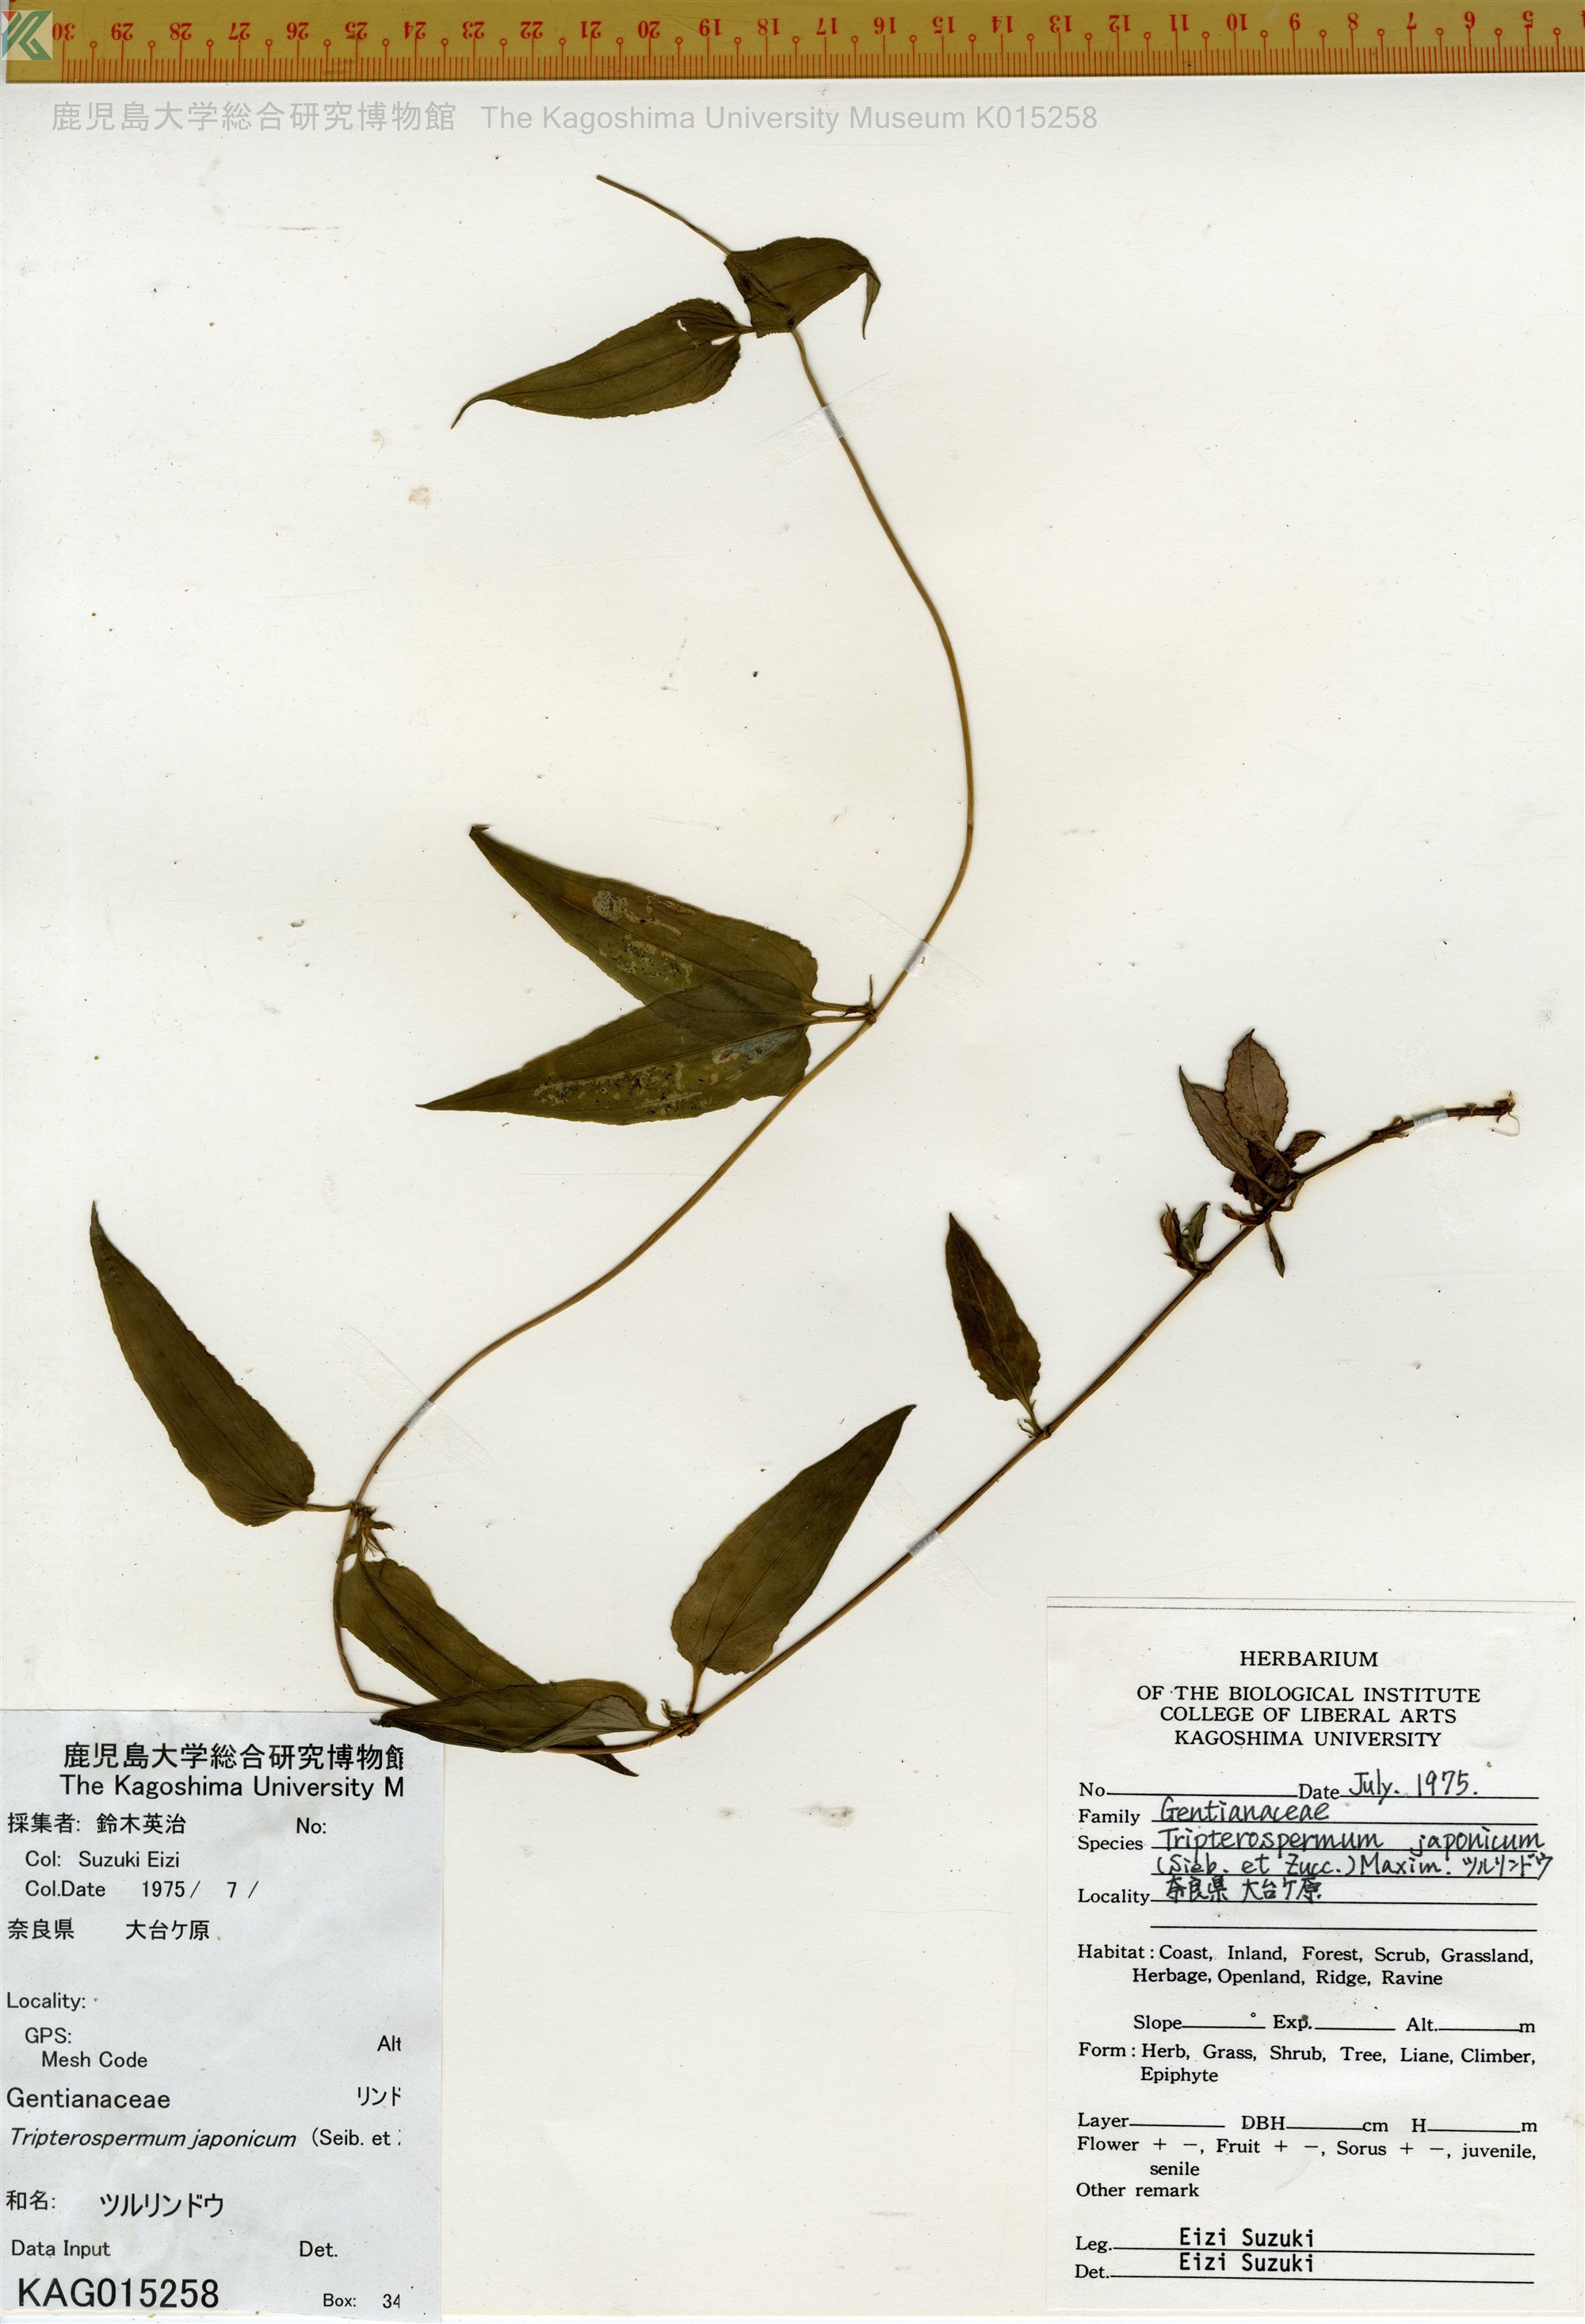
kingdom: Plantae
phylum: Tracheophyta
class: Magnoliopsida
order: Gentianales
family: Gentianaceae
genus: Tripterospermum
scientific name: Tripterospermum trinervium
